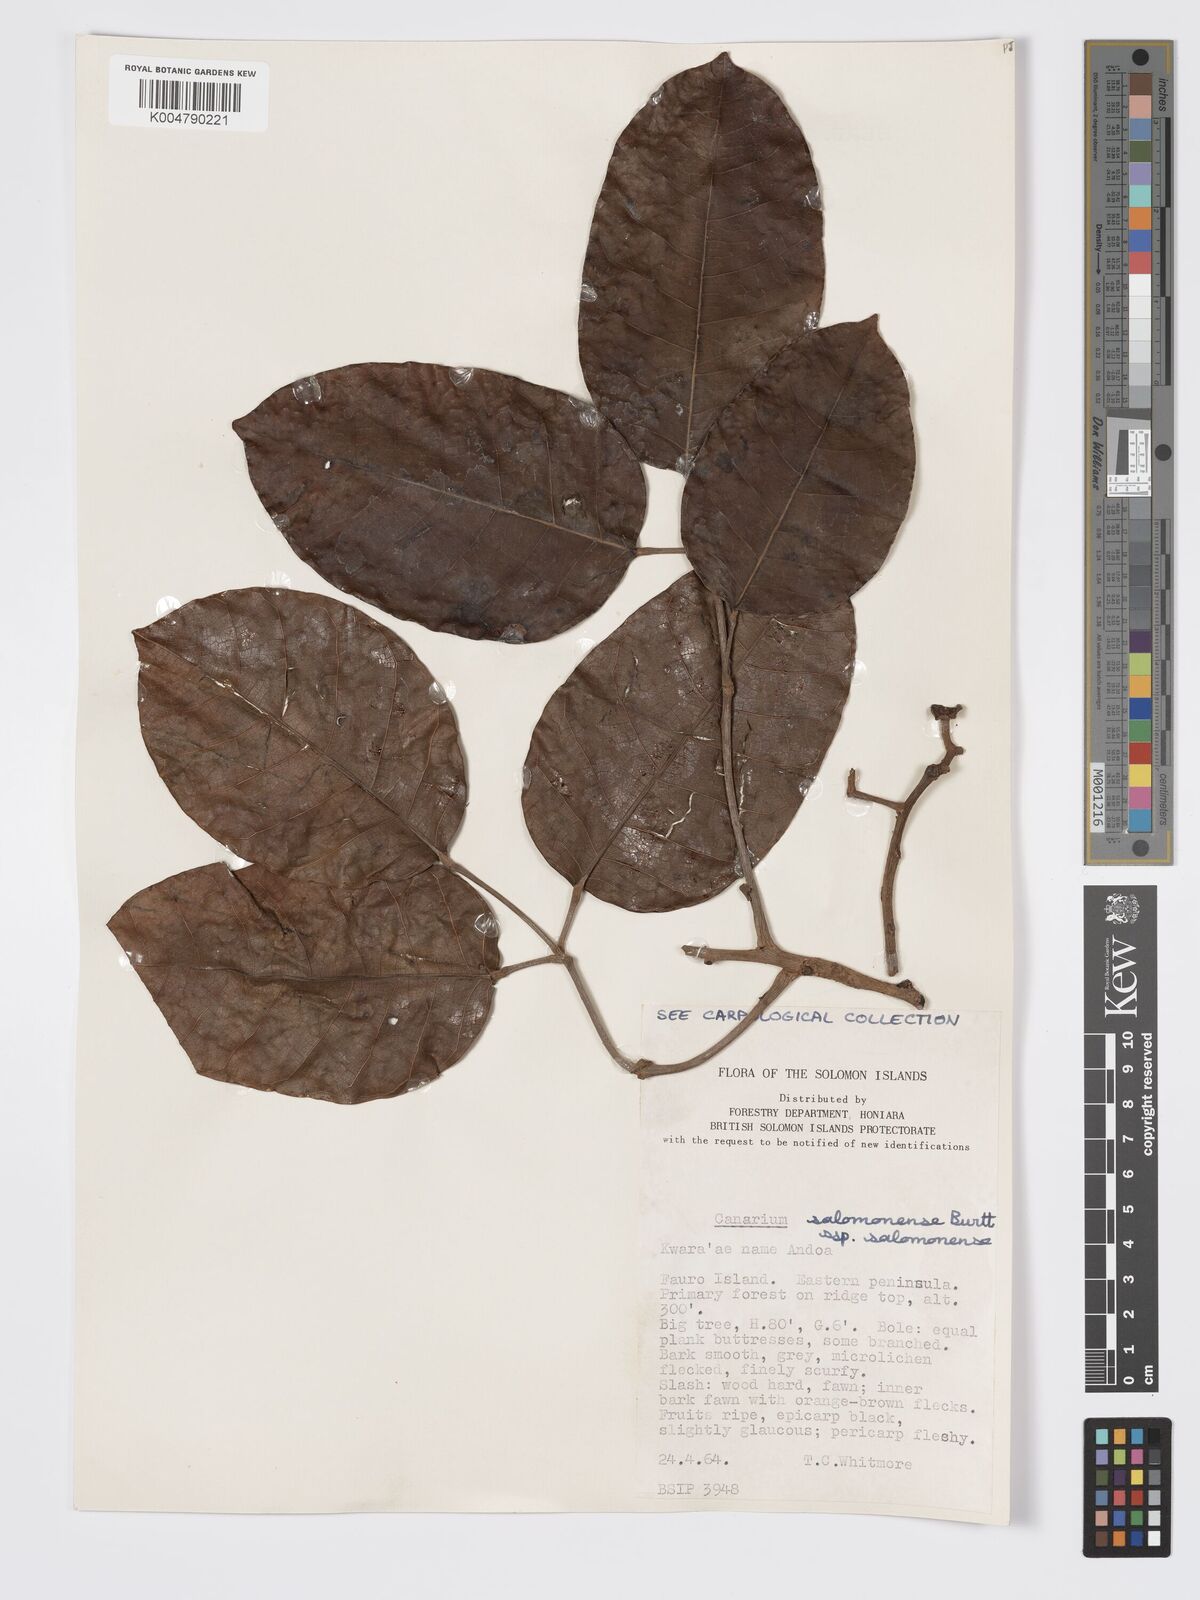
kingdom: Plantae
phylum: Tracheophyta
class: Magnoliopsida
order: Sapindales
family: Burseraceae
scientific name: Burseraceae
